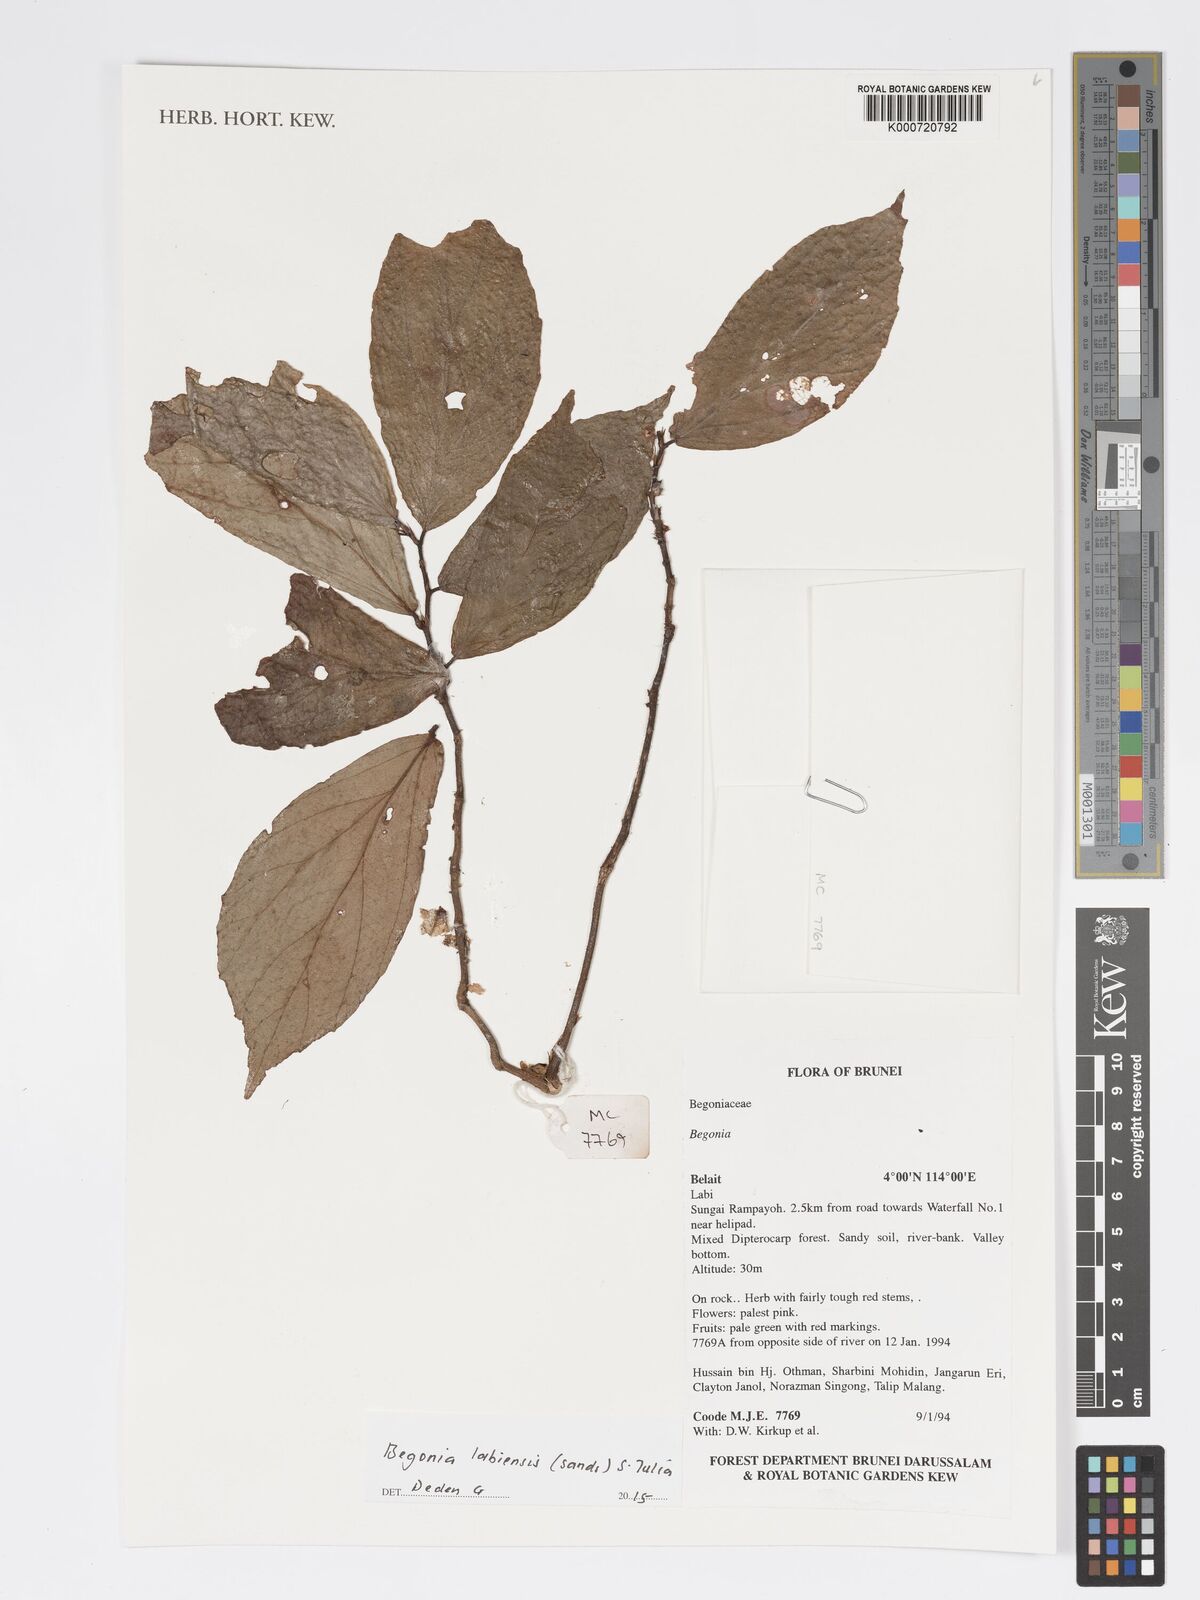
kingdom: Plantae
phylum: Tracheophyta
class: Magnoliopsida
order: Cucurbitales
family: Begoniaceae
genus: Begonia
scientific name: Begonia labiensis
